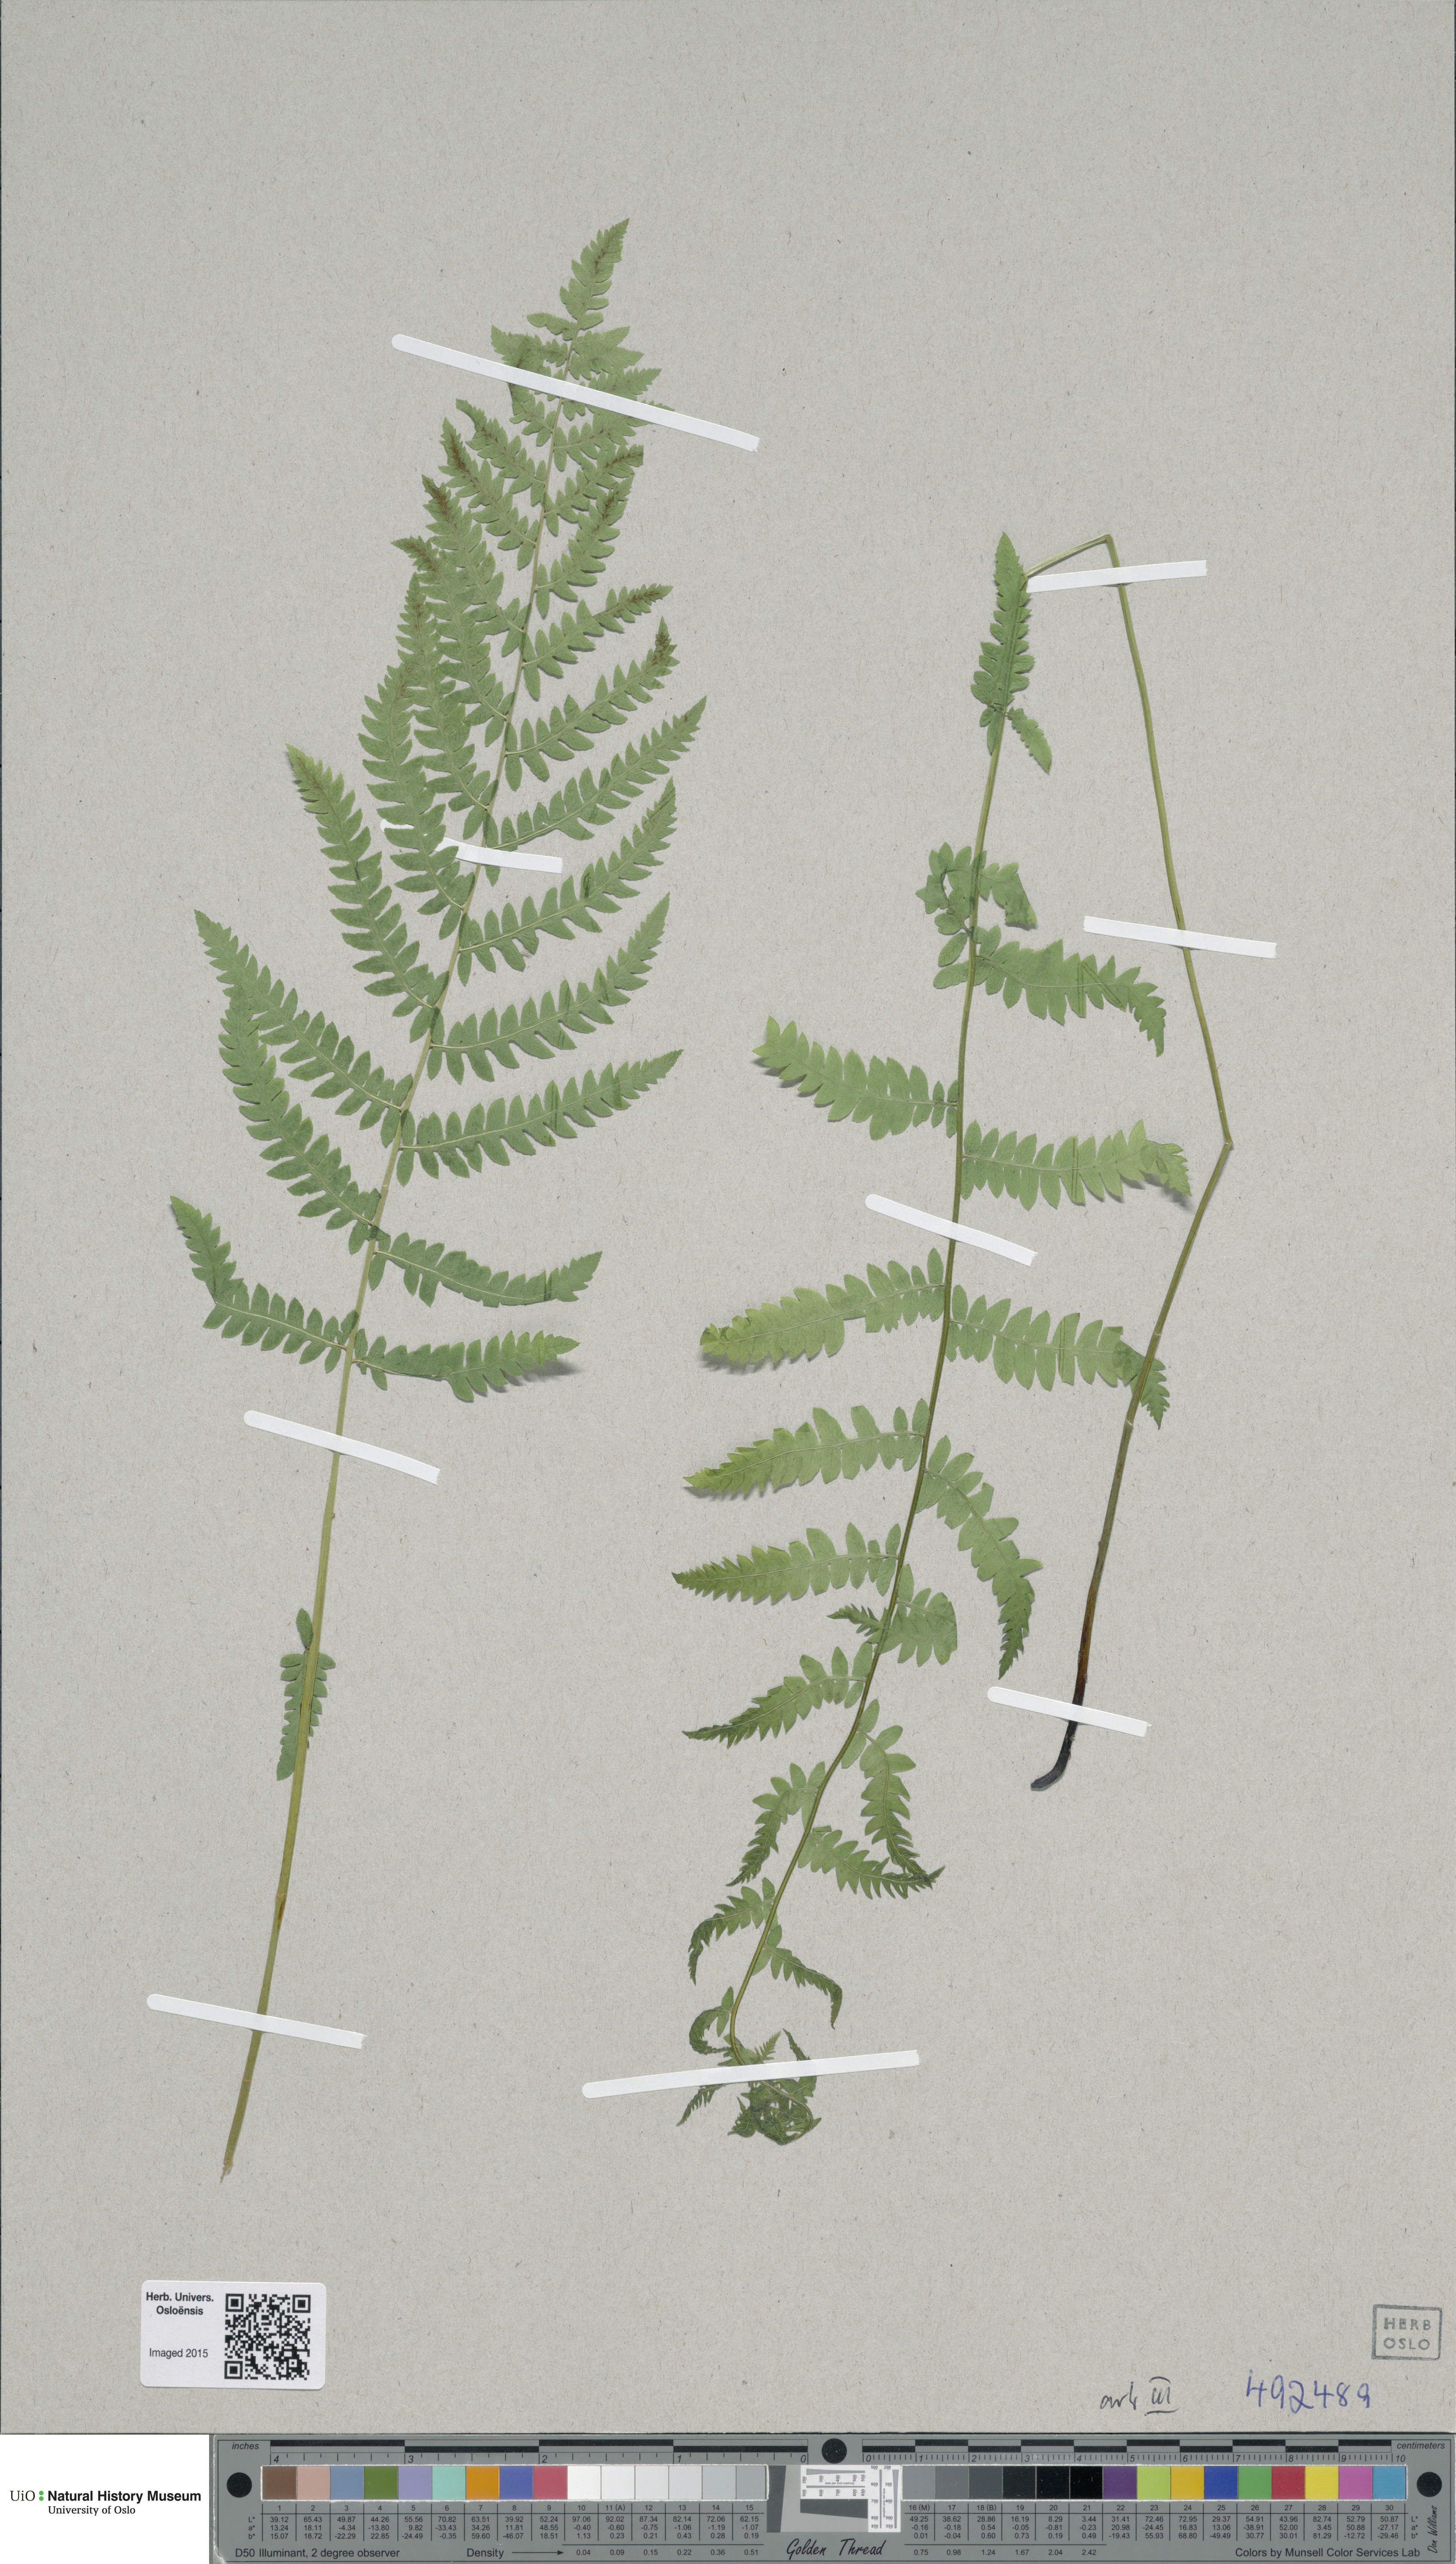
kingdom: Plantae
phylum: Tracheophyta
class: Polypodiopsida
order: Polypodiales
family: Thelypteridaceae
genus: Thelypteris
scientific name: Thelypteris palustris
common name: Marsh fern
